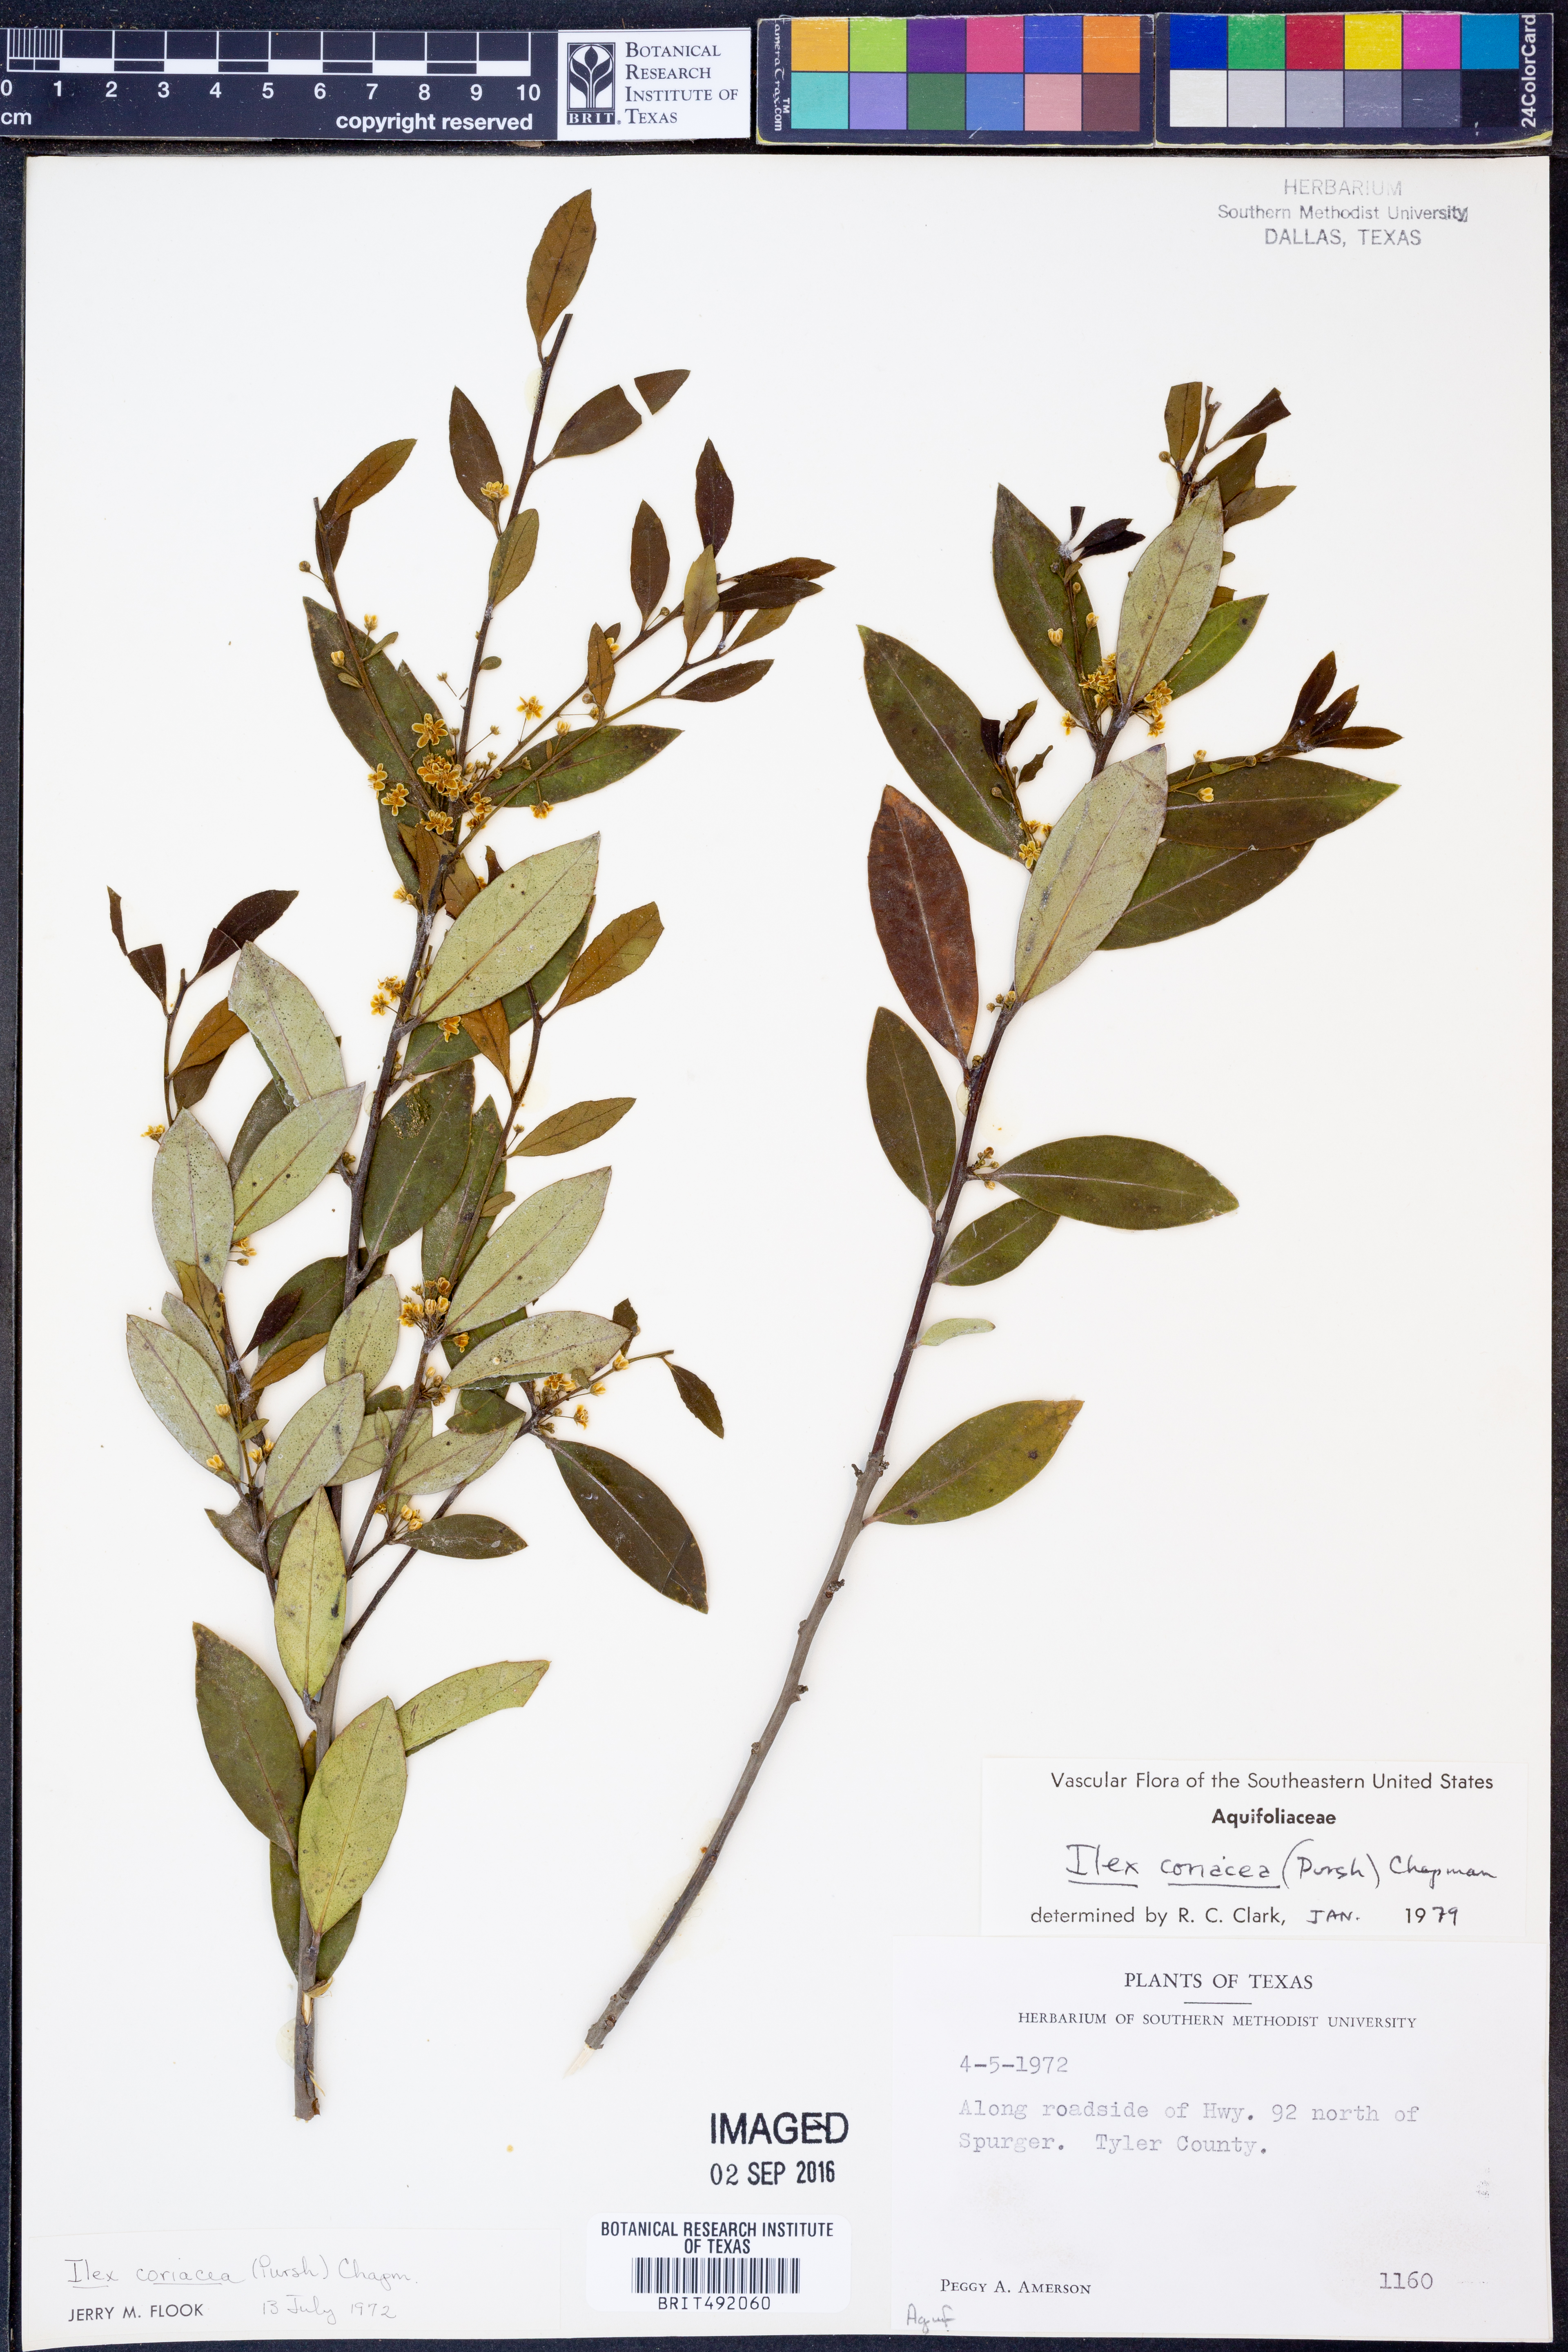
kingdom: Plantae
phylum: Tracheophyta
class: Magnoliopsida
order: Aquifoliales
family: Aquifoliaceae
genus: Ilex
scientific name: Ilex coriacea
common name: Sweet gallberry
